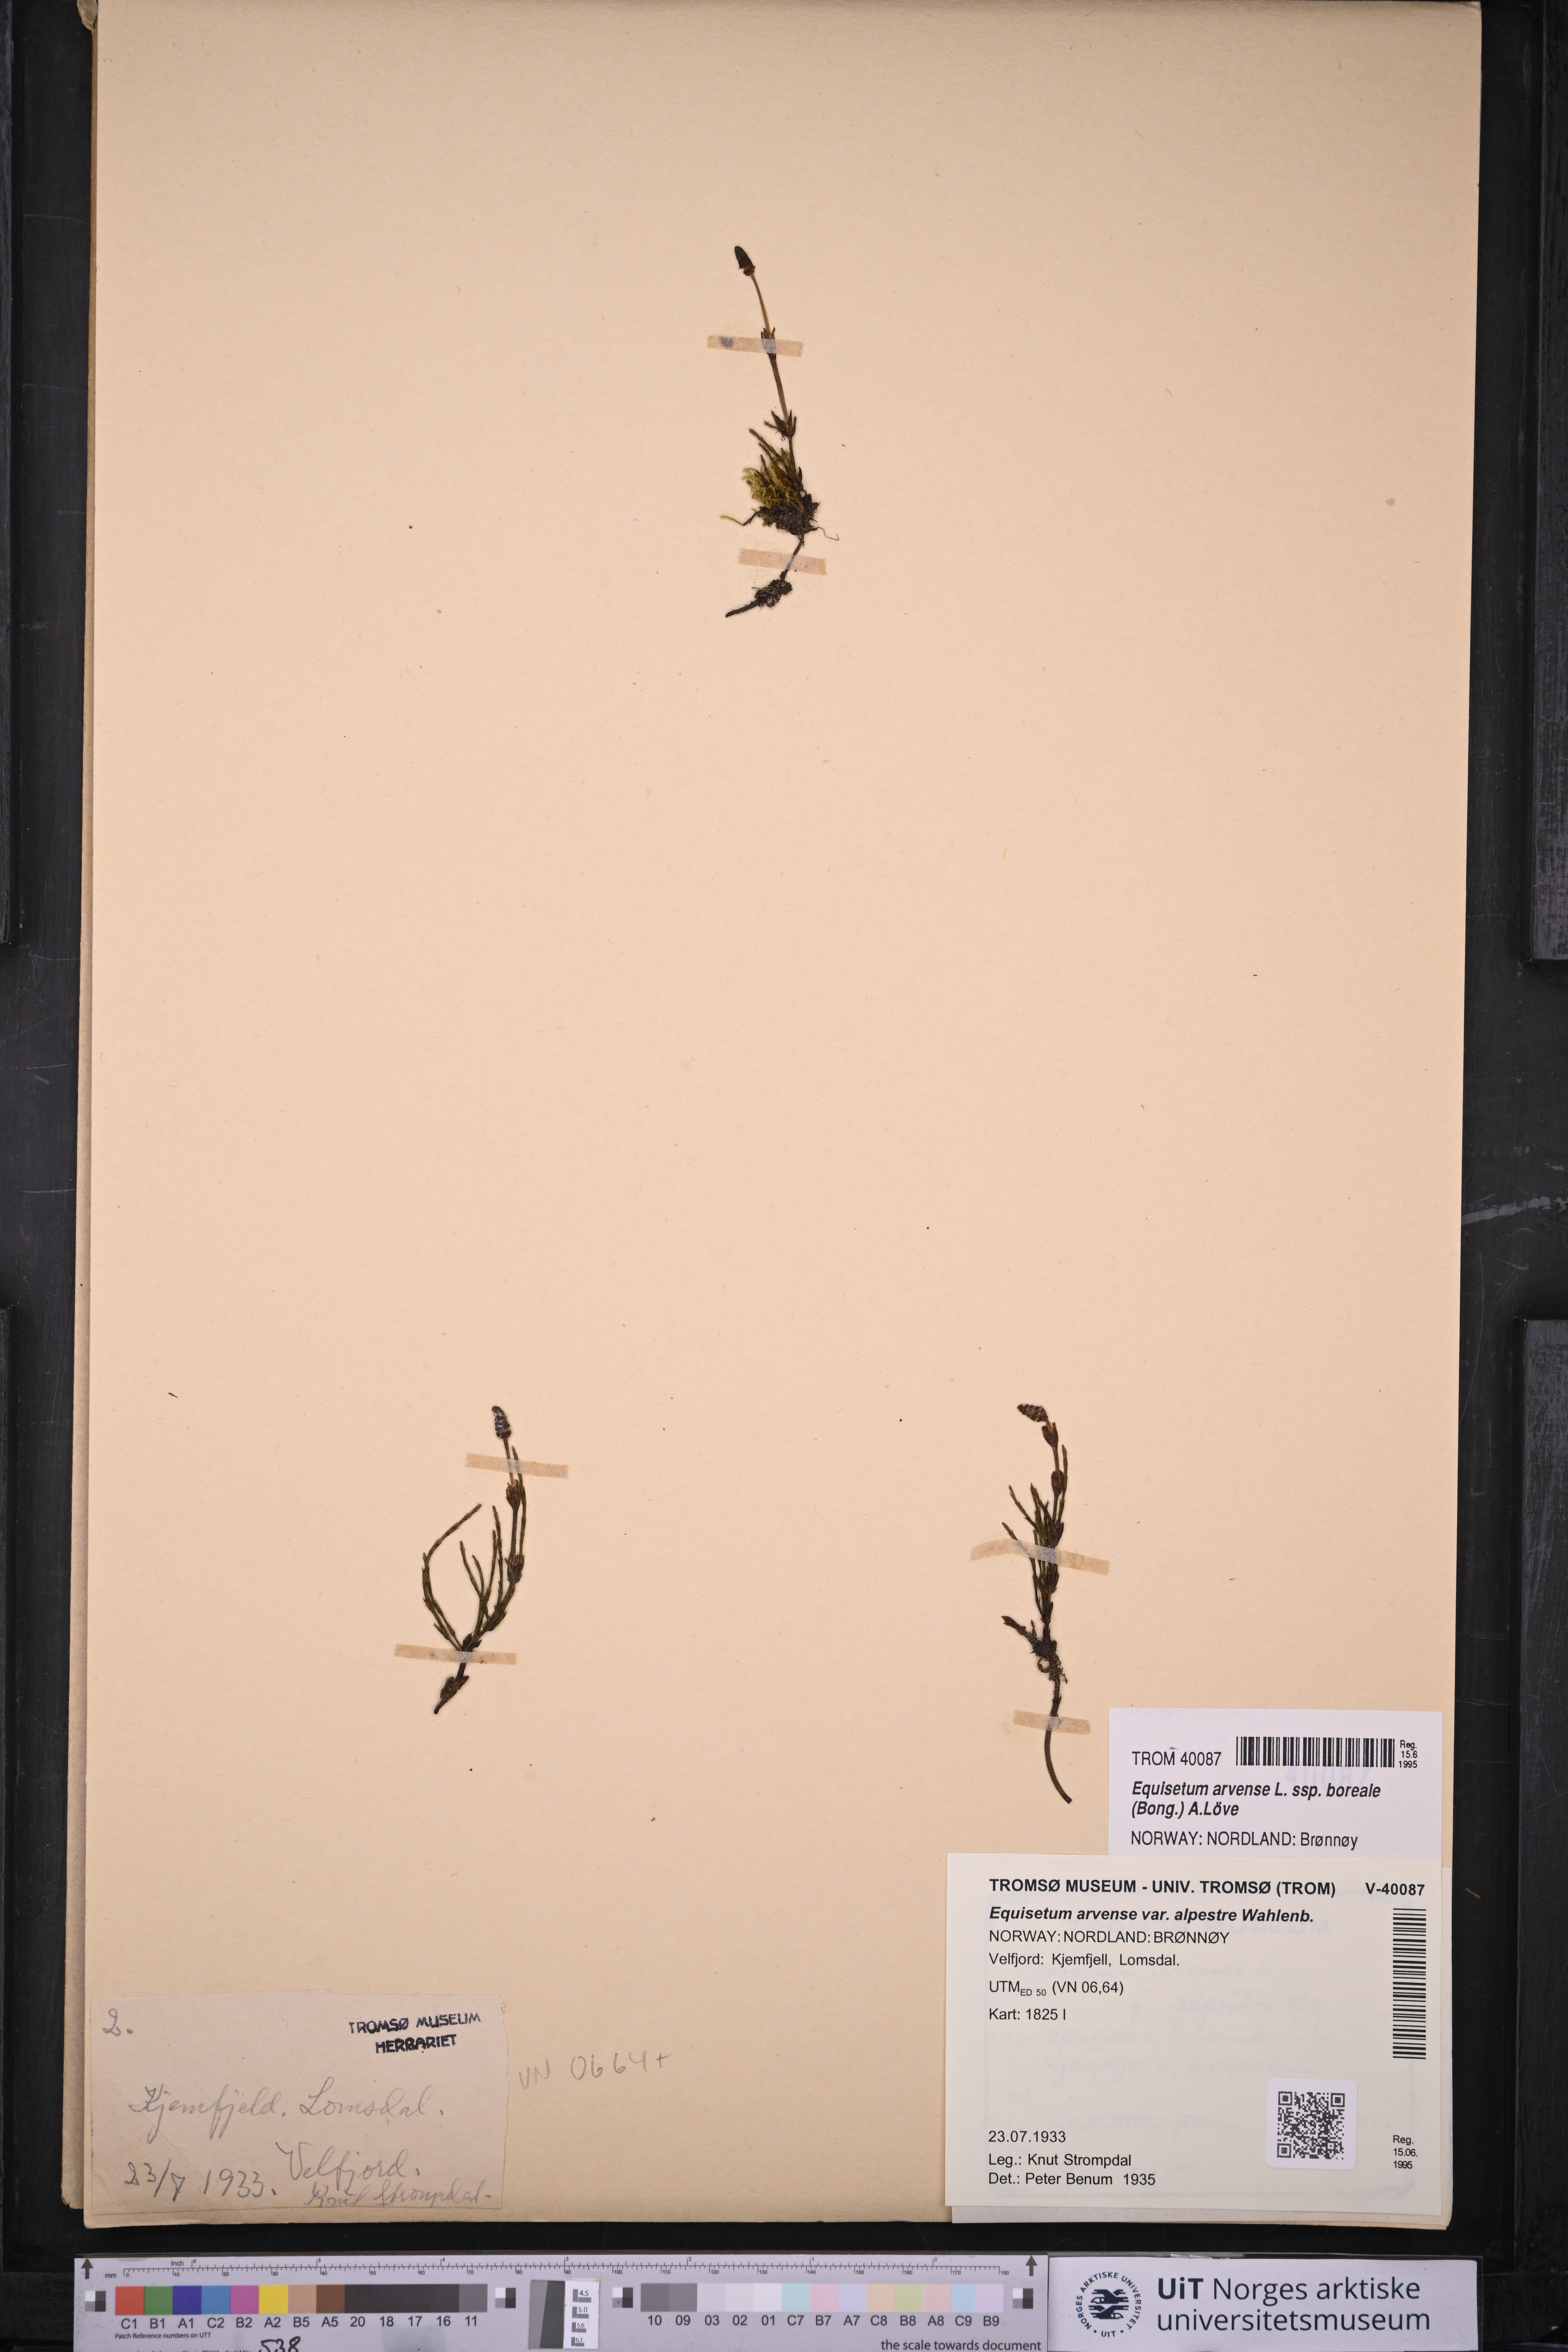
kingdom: Plantae
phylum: Tracheophyta
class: Polypodiopsida
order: Equisetales
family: Equisetaceae
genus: Equisetum
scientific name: Equisetum arvense
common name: Field horsetail
